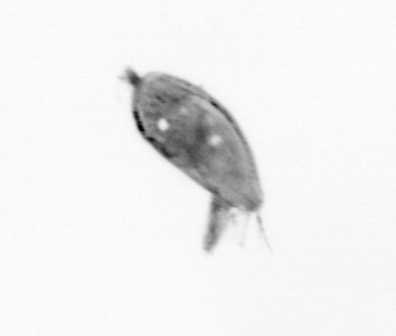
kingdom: Animalia
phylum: Arthropoda
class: Maxillopoda
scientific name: Maxillopoda
